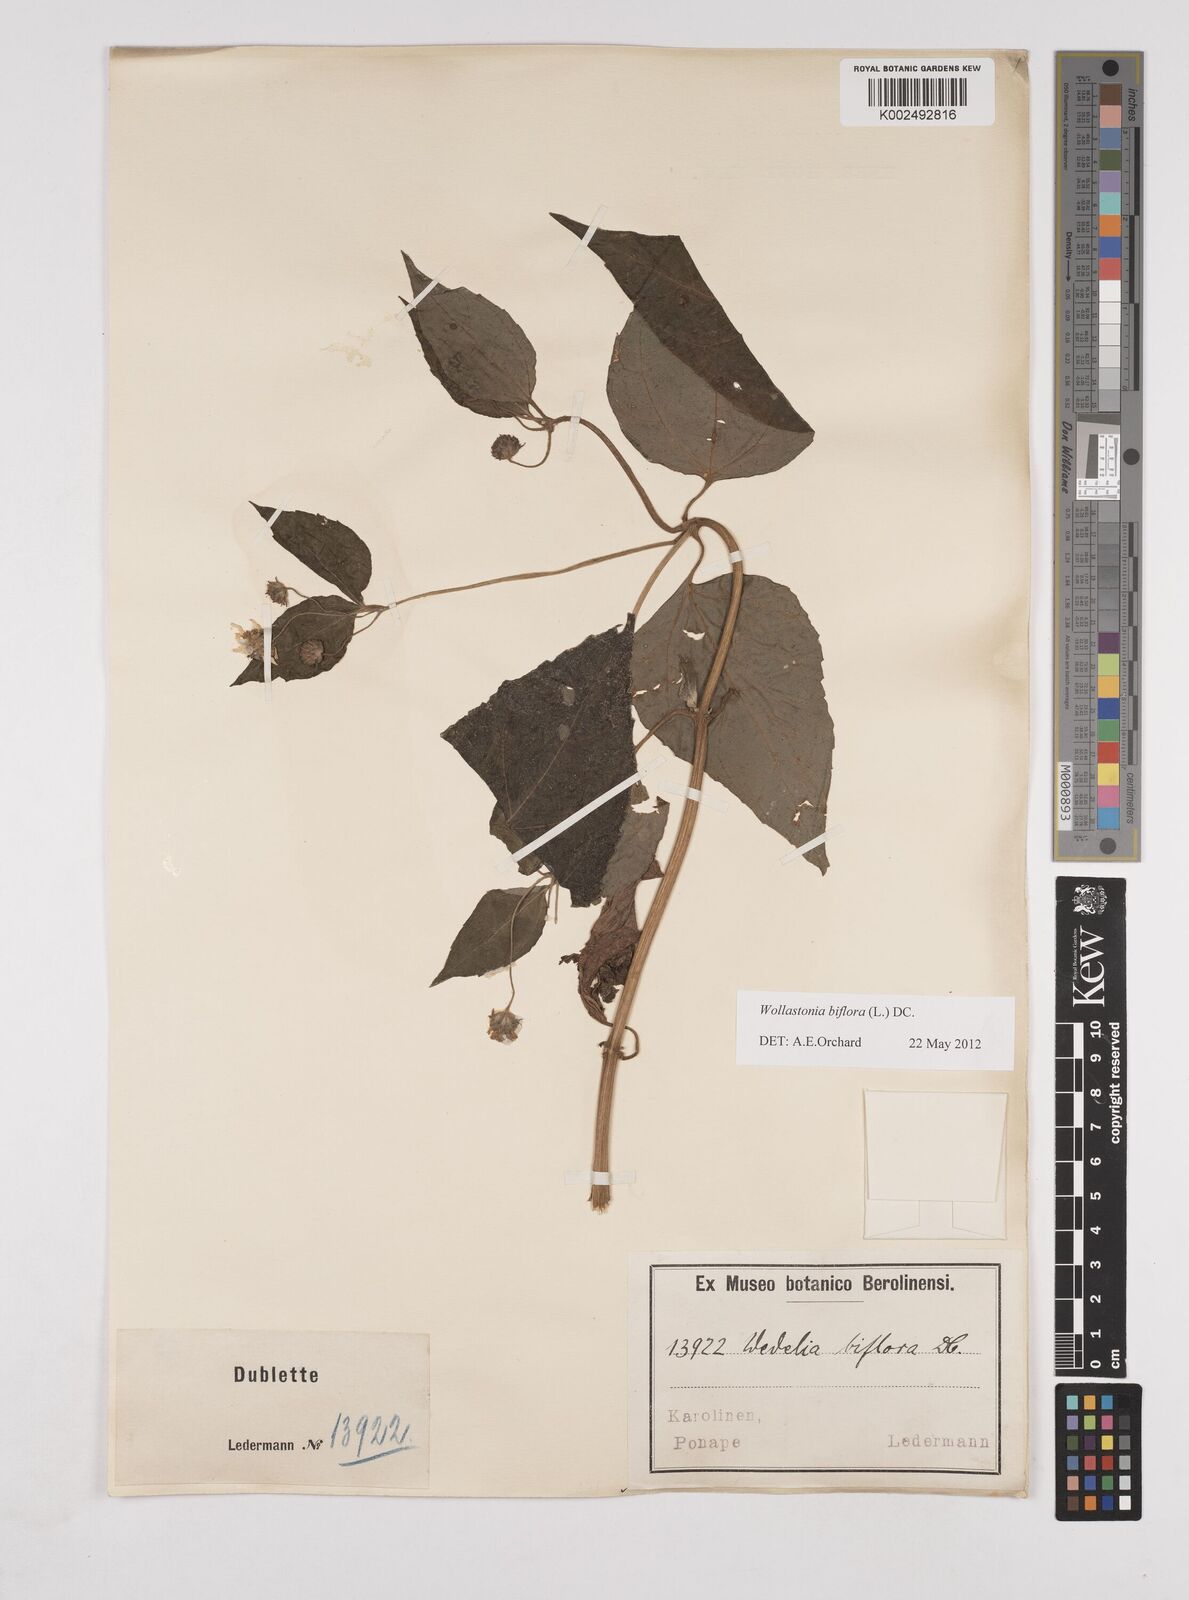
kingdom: Plantae
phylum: Tracheophyta
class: Magnoliopsida
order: Asterales
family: Asteraceae
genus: Wollastonia
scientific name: Wollastonia biflora
